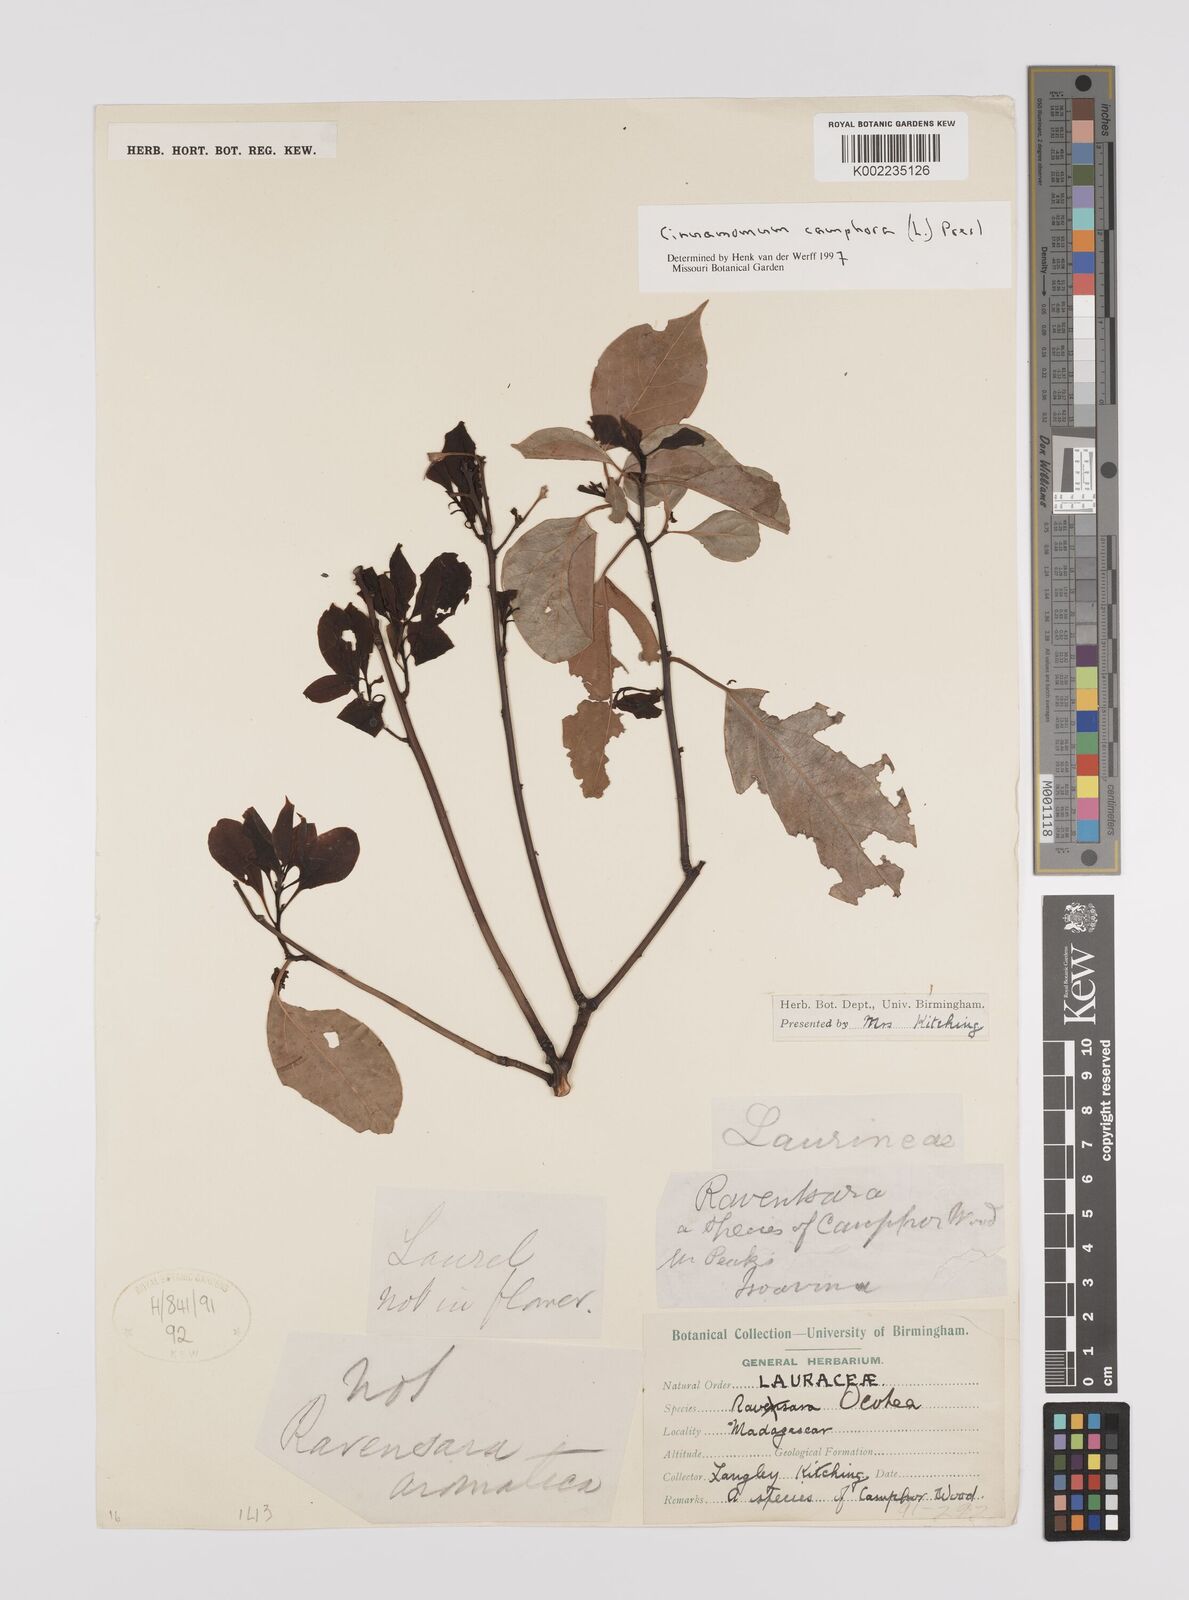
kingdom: Plantae
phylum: Tracheophyta
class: Magnoliopsida
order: Laurales
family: Lauraceae
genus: Cinnamomum
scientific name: Cinnamomum camphora
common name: Camphortree
